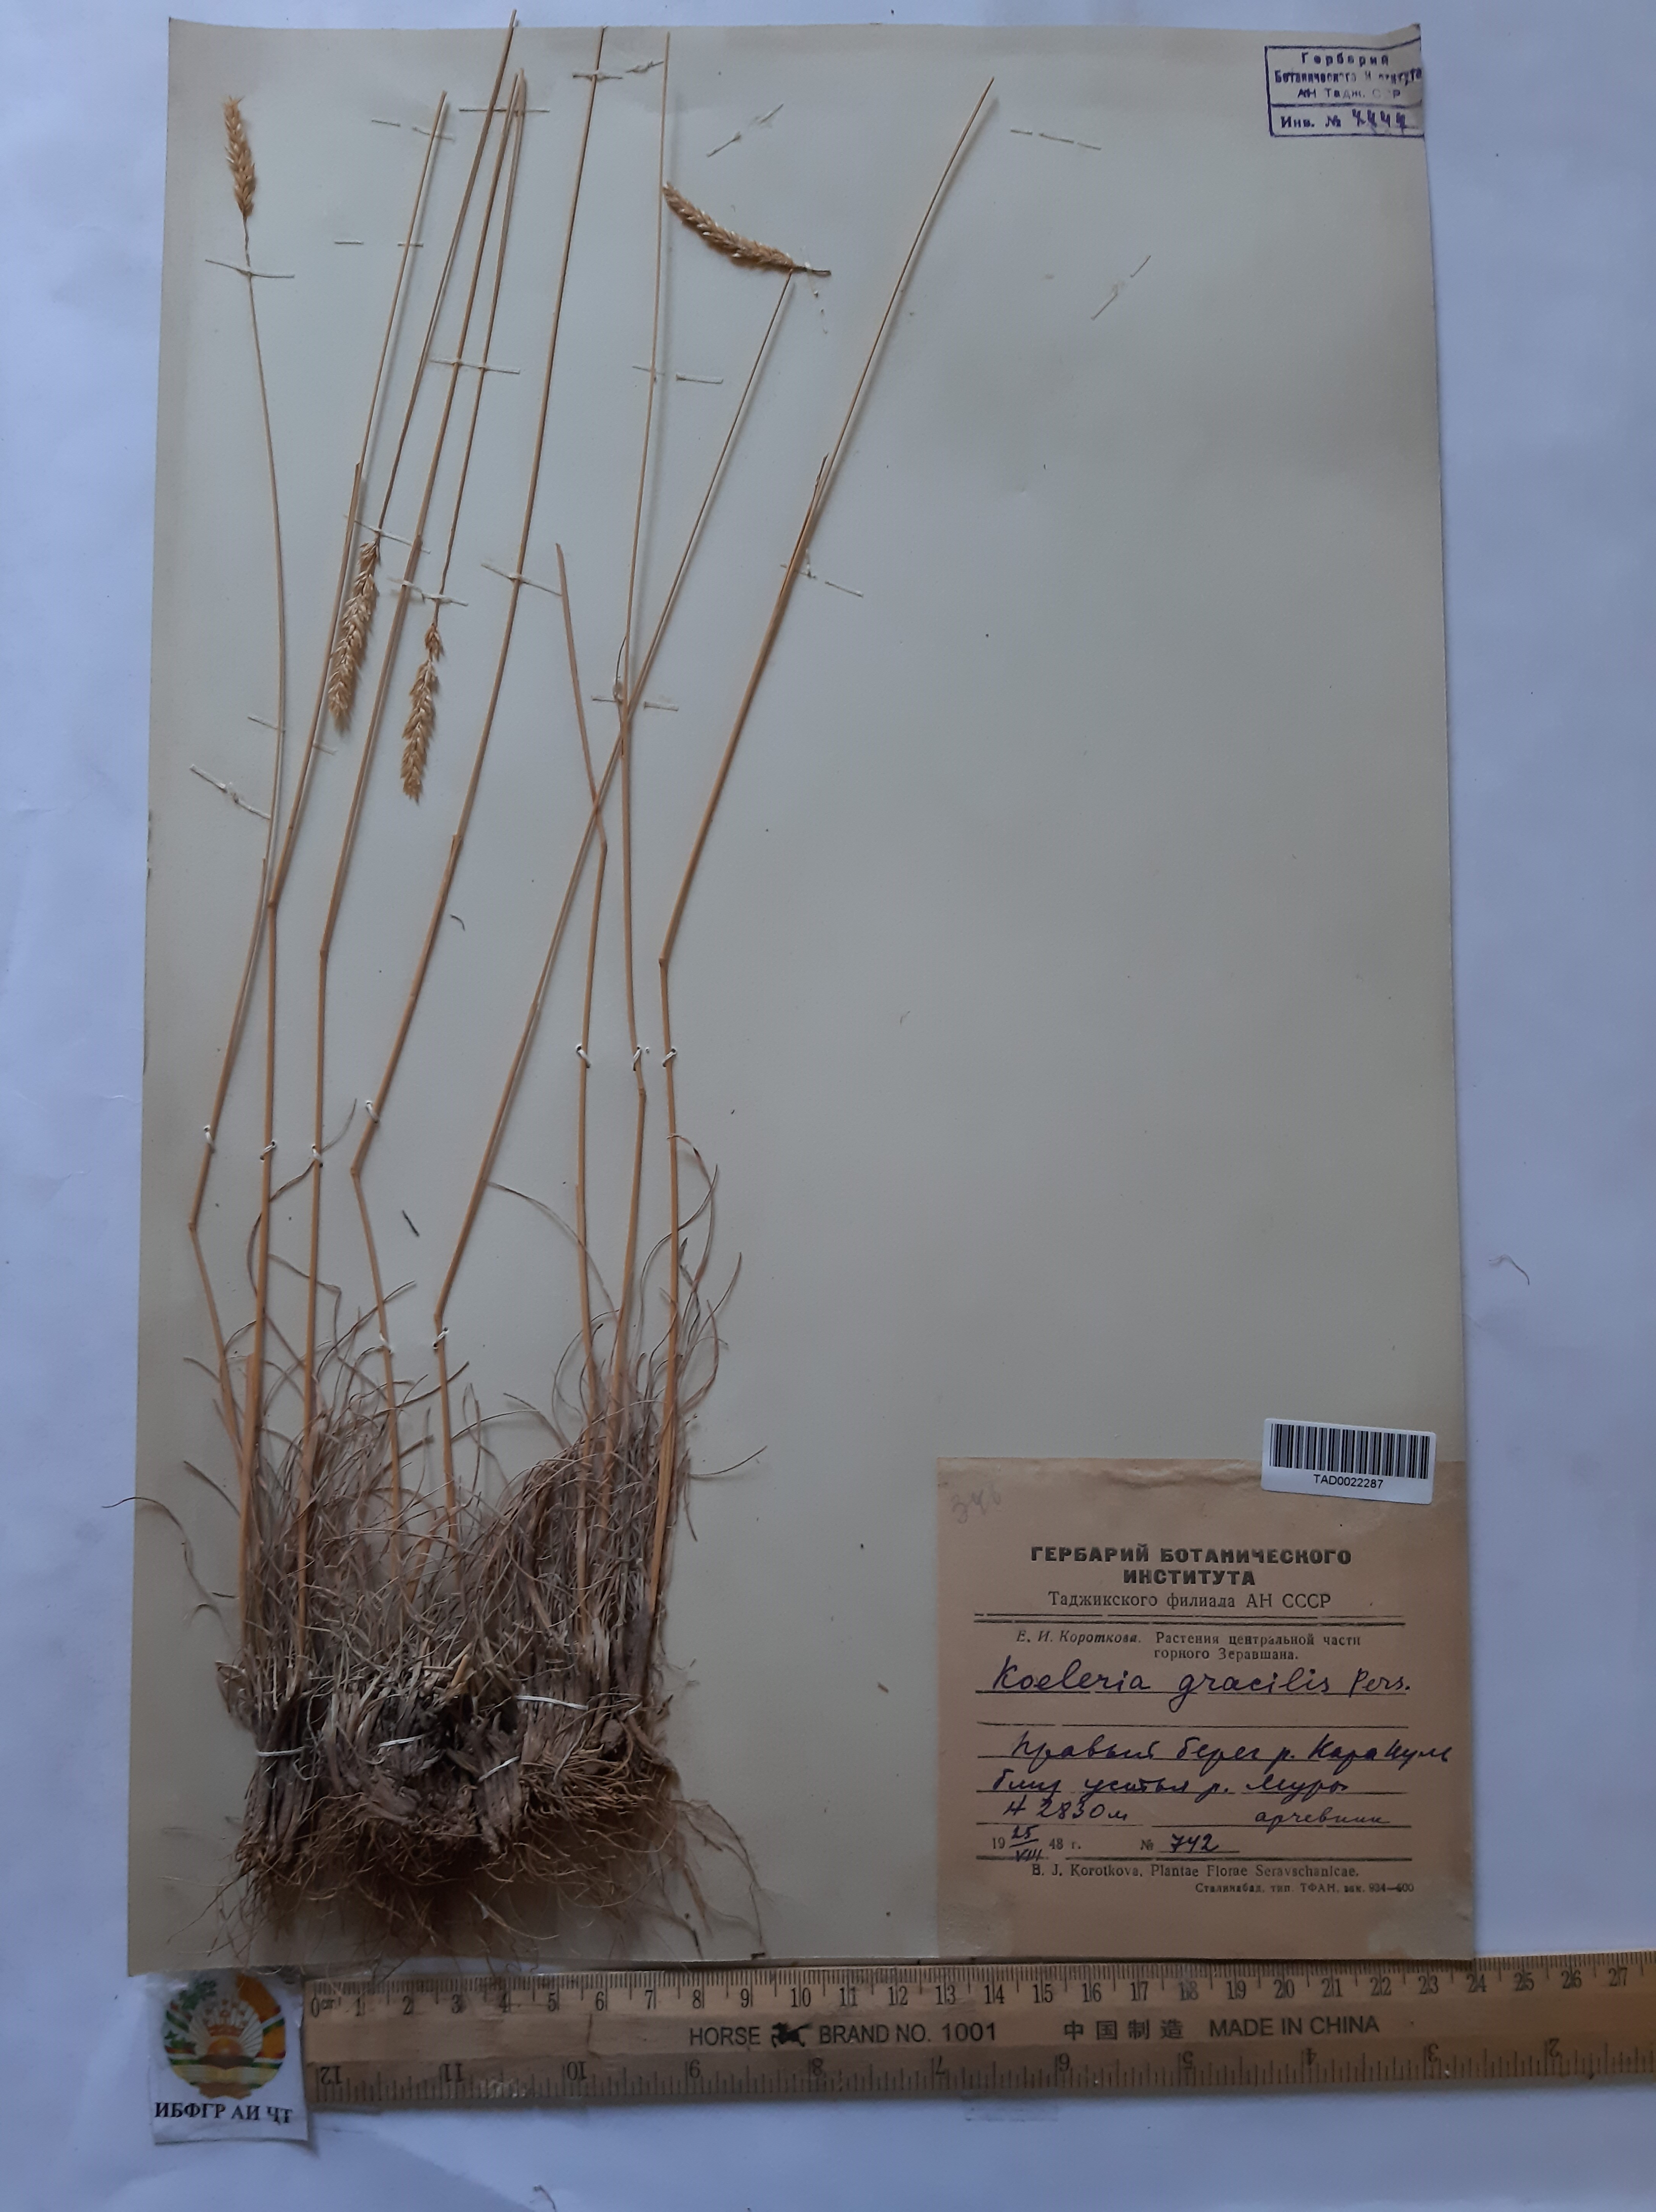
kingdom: Plantae
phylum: Tracheophyta
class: Liliopsida
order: Poales
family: Poaceae
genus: Koeleria
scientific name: Koeleria macrantha
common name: Crested hair-grass
